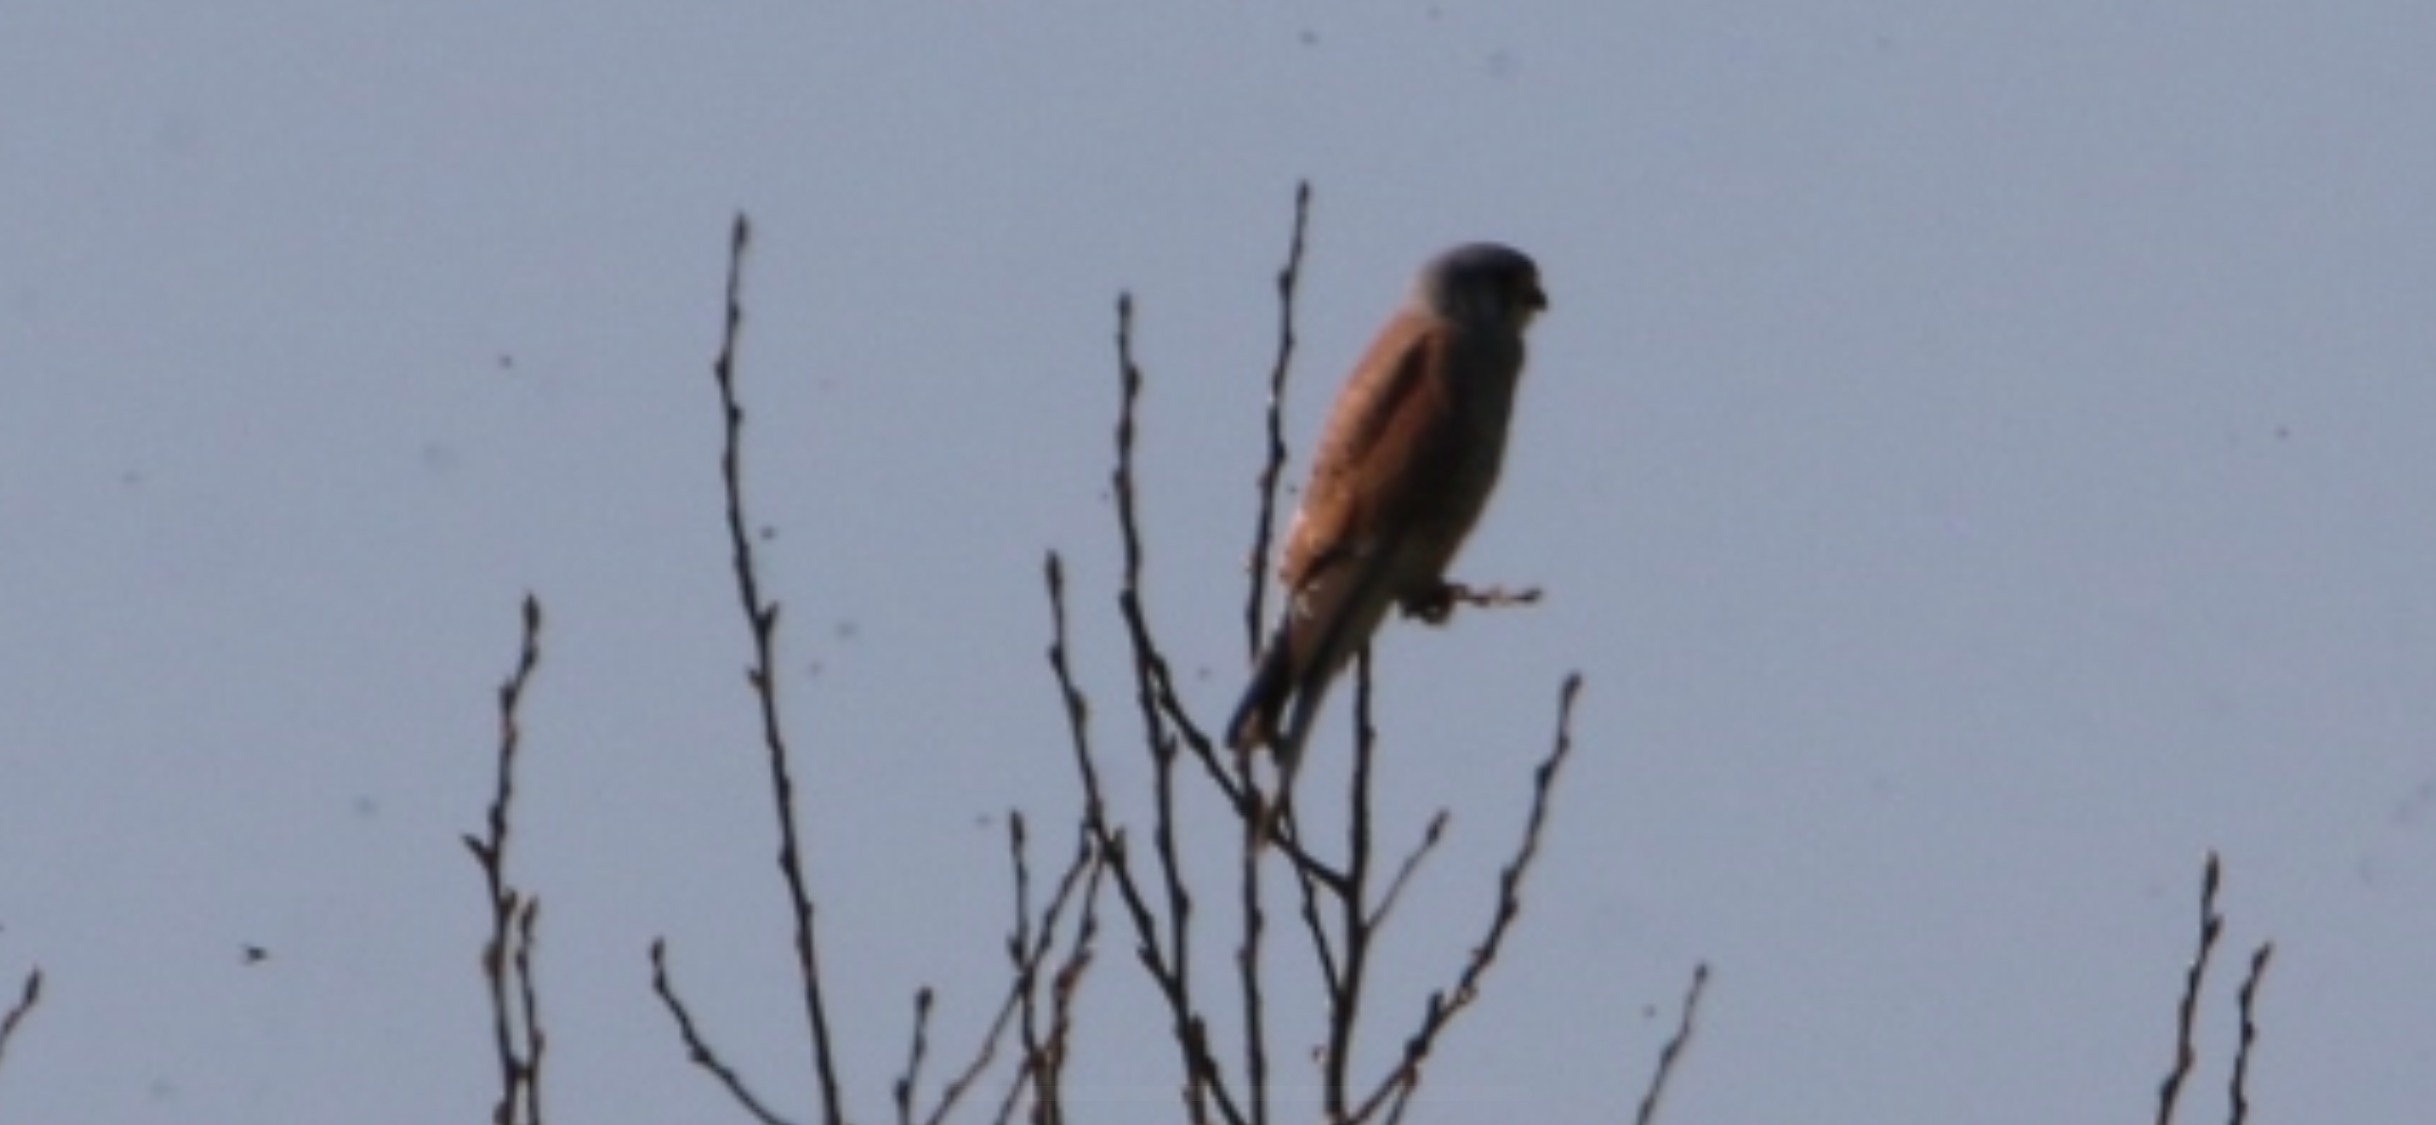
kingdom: Animalia
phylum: Chordata
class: Aves
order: Falconiformes
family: Falconidae
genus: Falco
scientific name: Falco tinnunculus
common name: Tårnfalk
